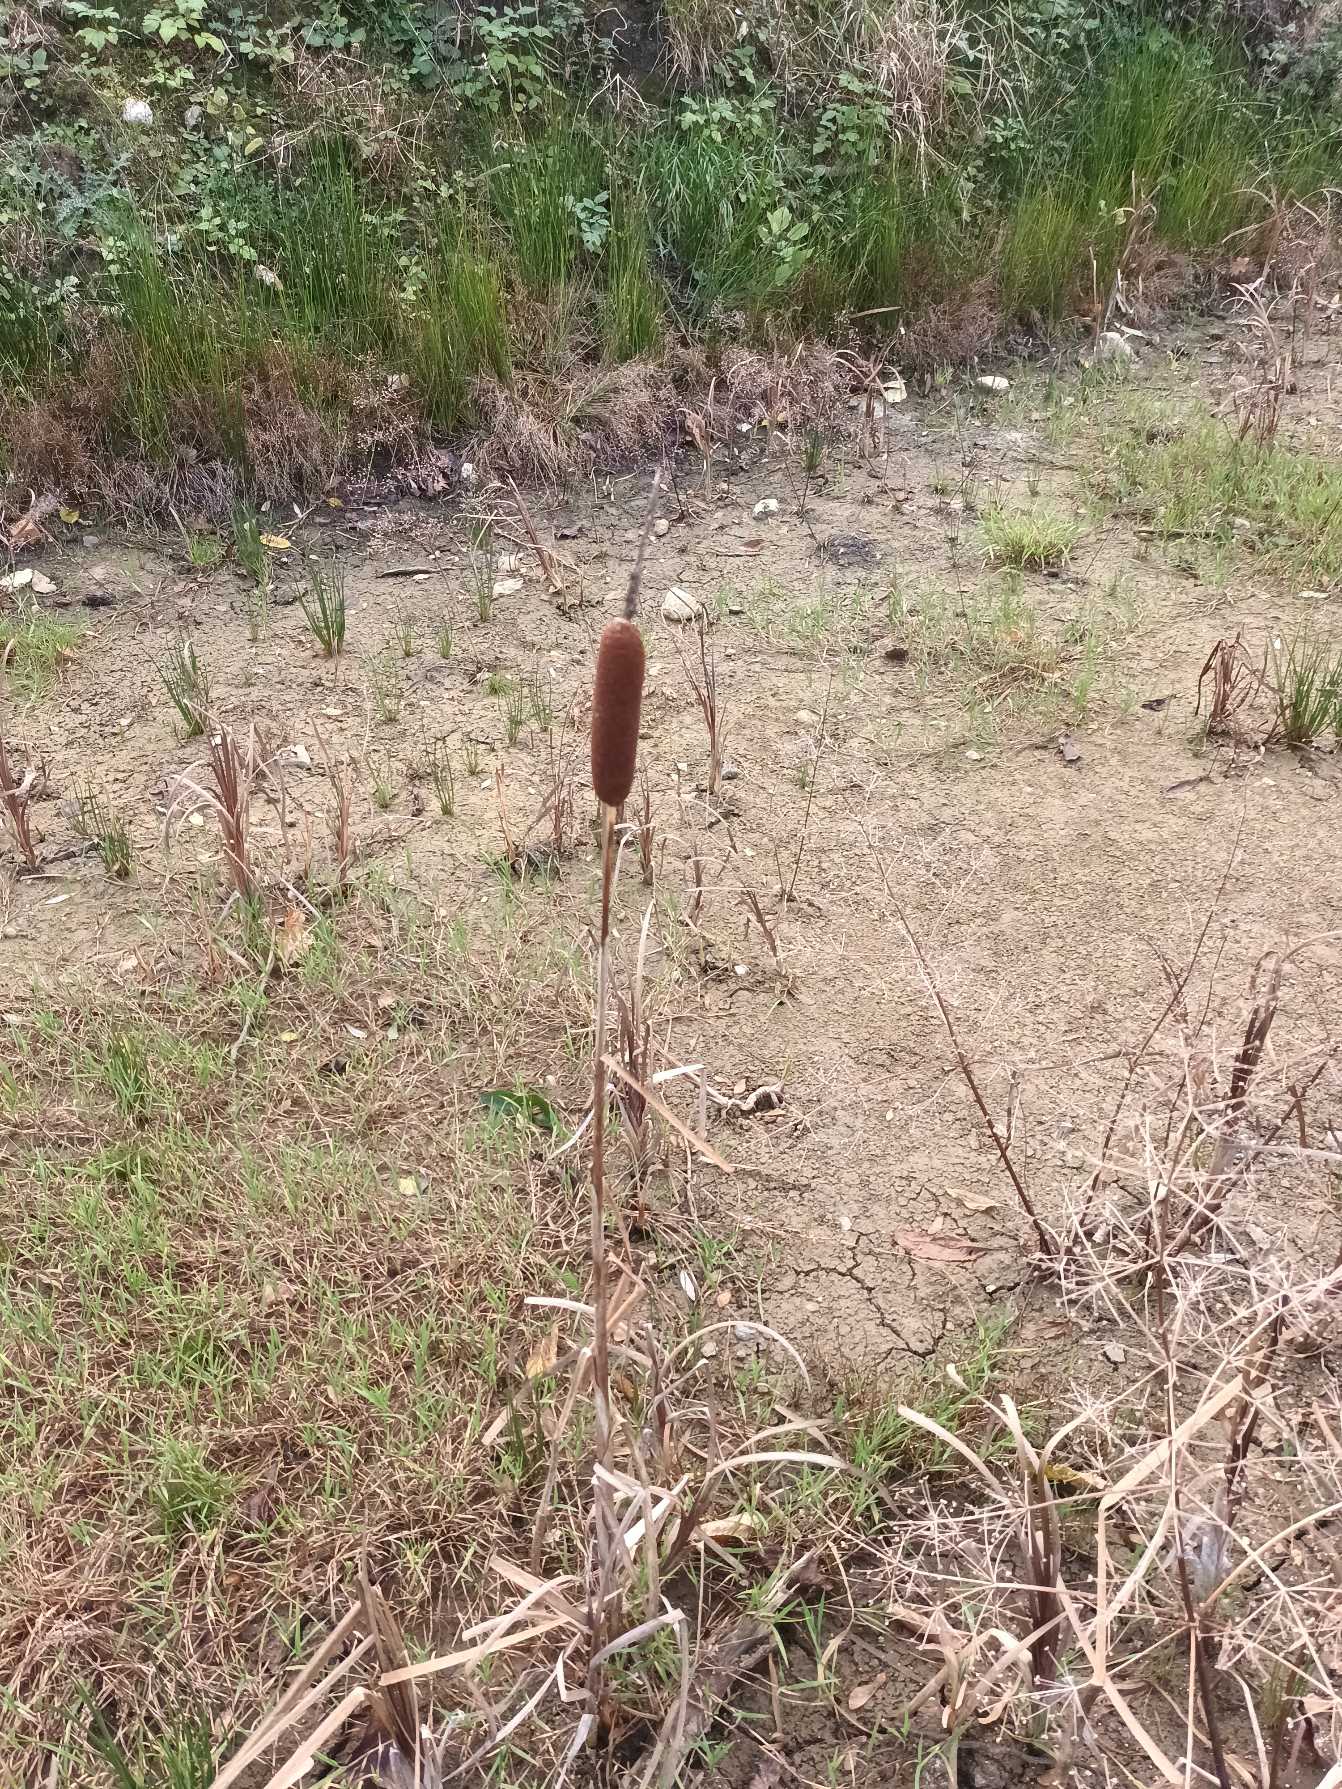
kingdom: Plantae
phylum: Tracheophyta
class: Liliopsida
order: Poales
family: Typhaceae
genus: Typha
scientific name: Typha latifolia
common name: Bredbladet dunhammer
